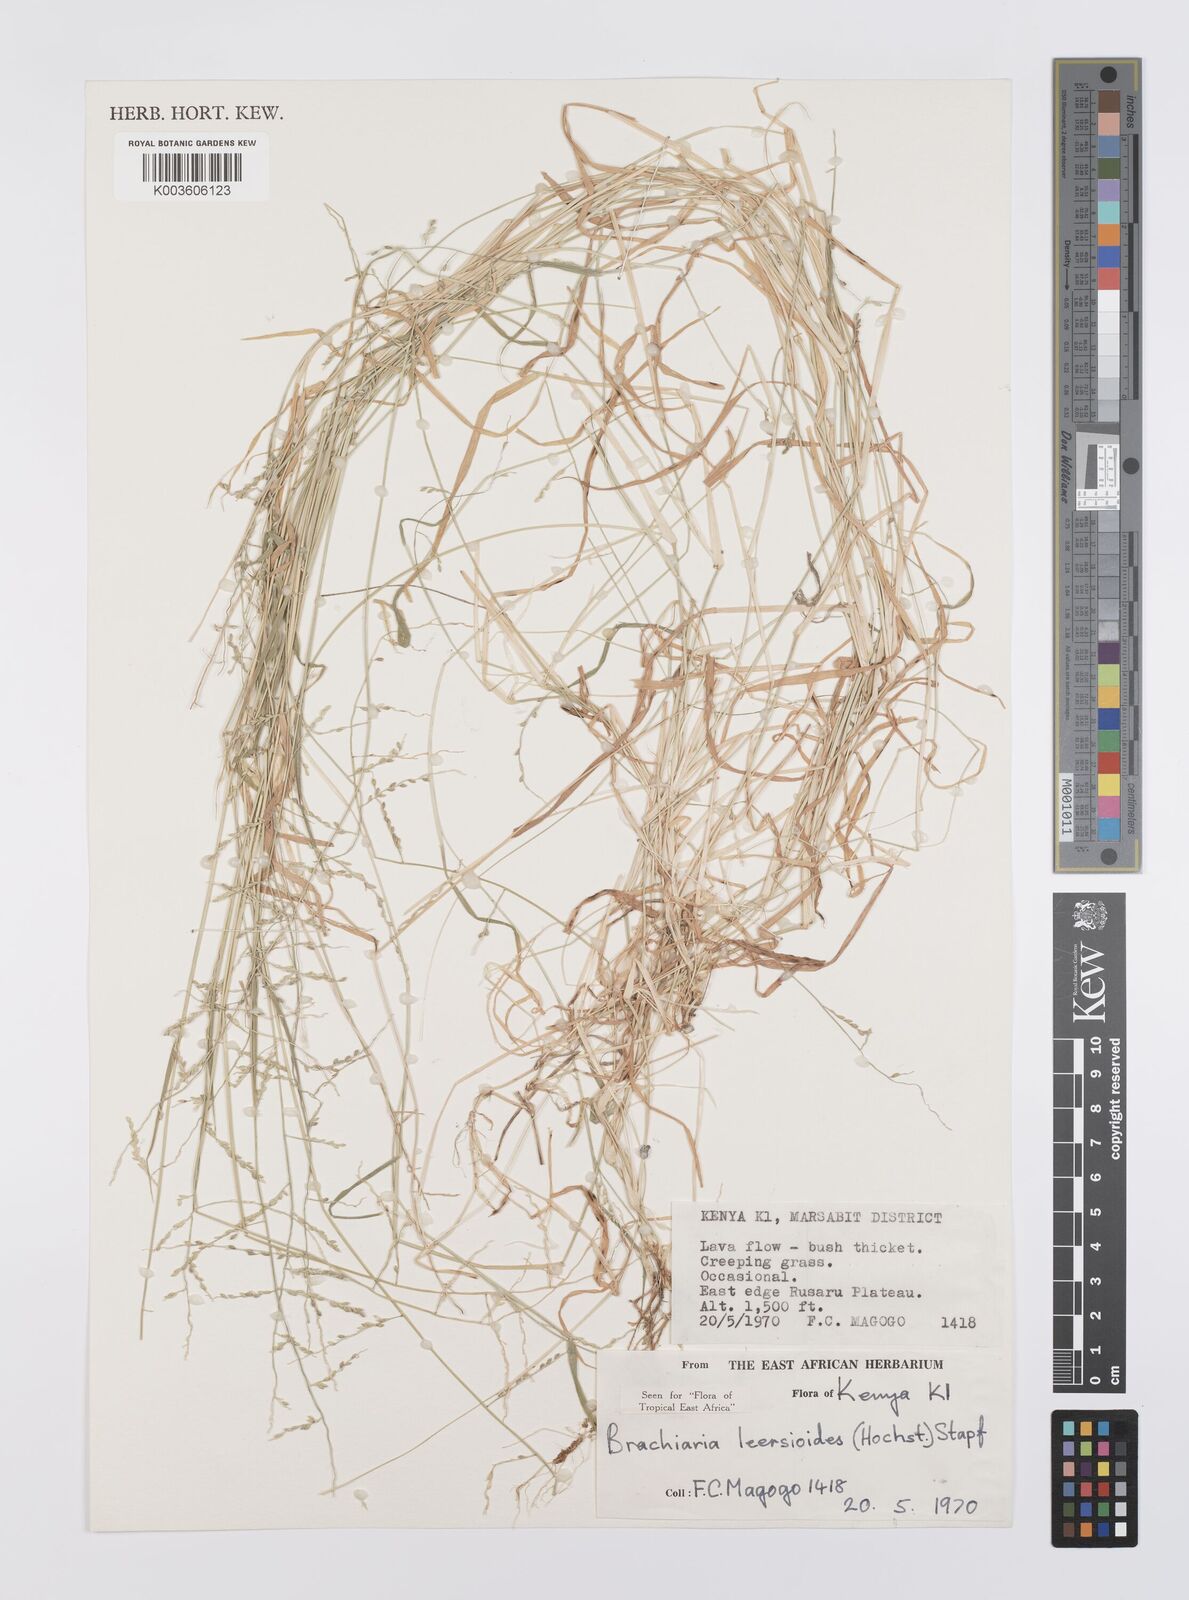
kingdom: Plantae
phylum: Tracheophyta
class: Liliopsida
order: Poales
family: Poaceae
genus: Urochloa
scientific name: Urochloa leersioides
